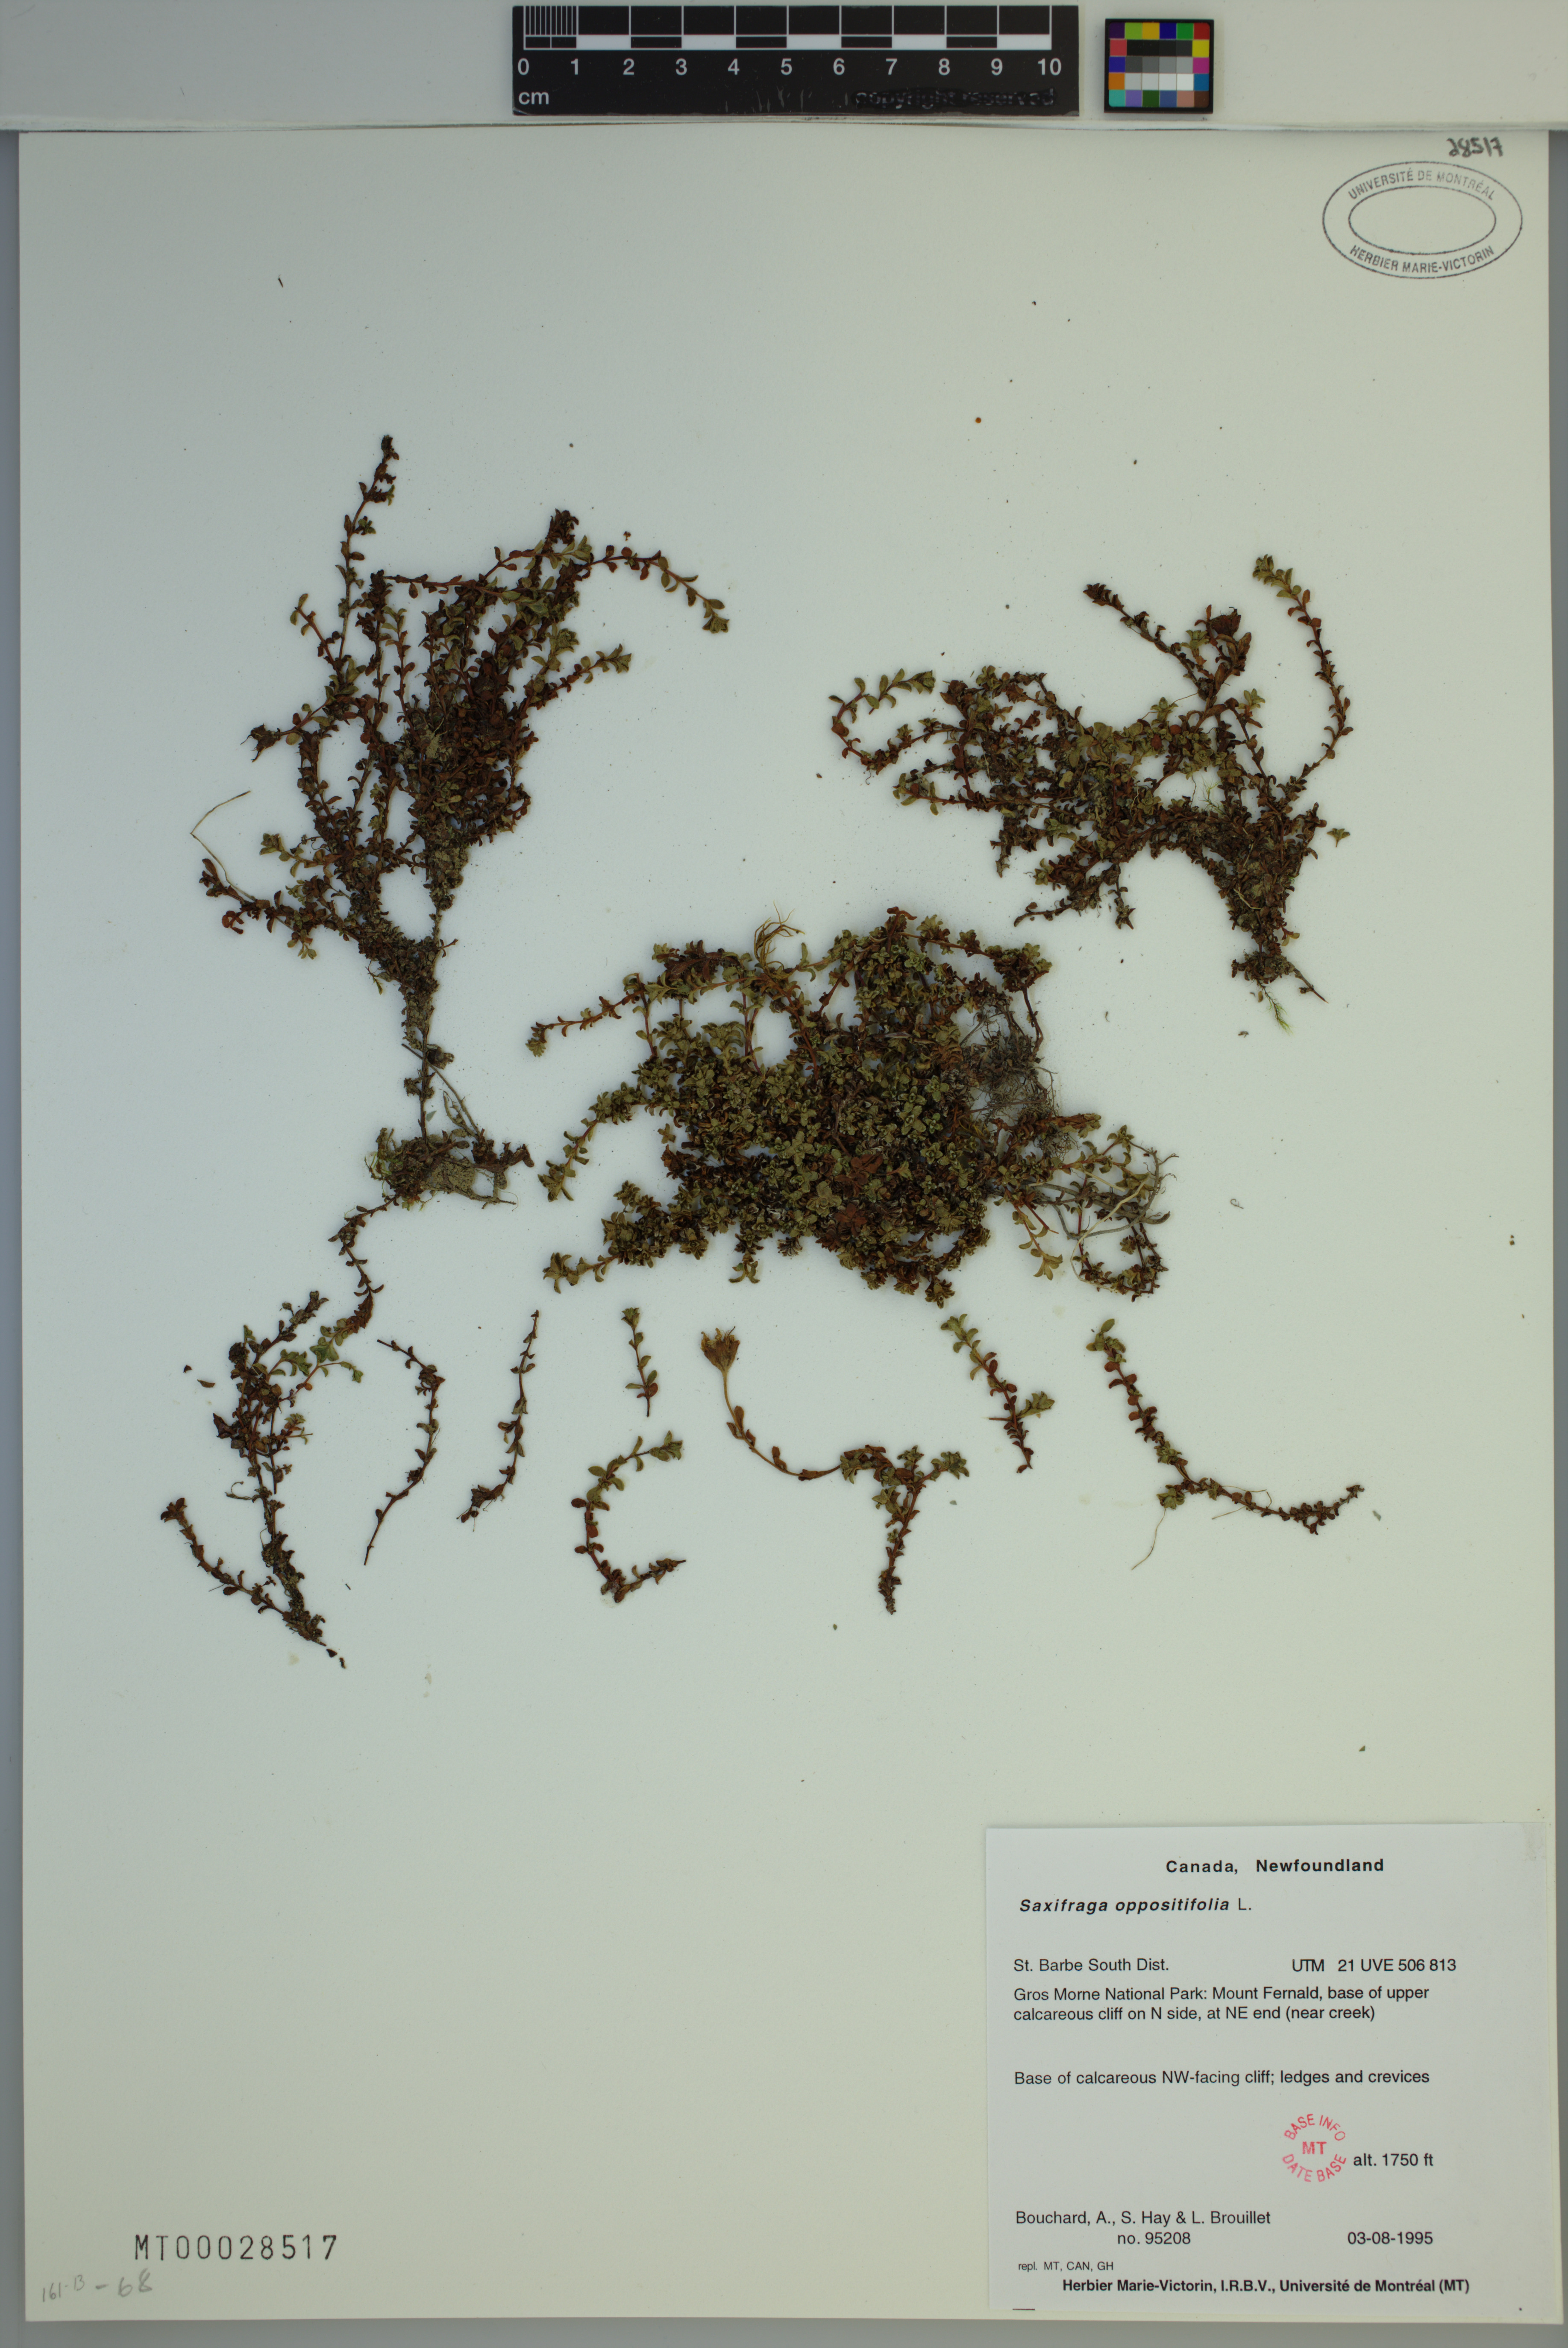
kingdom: Plantae
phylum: Tracheophyta
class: Magnoliopsida
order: Saxifragales
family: Saxifragaceae
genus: Saxifraga
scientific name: Saxifraga oppositifolia
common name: Purple saxifrage
